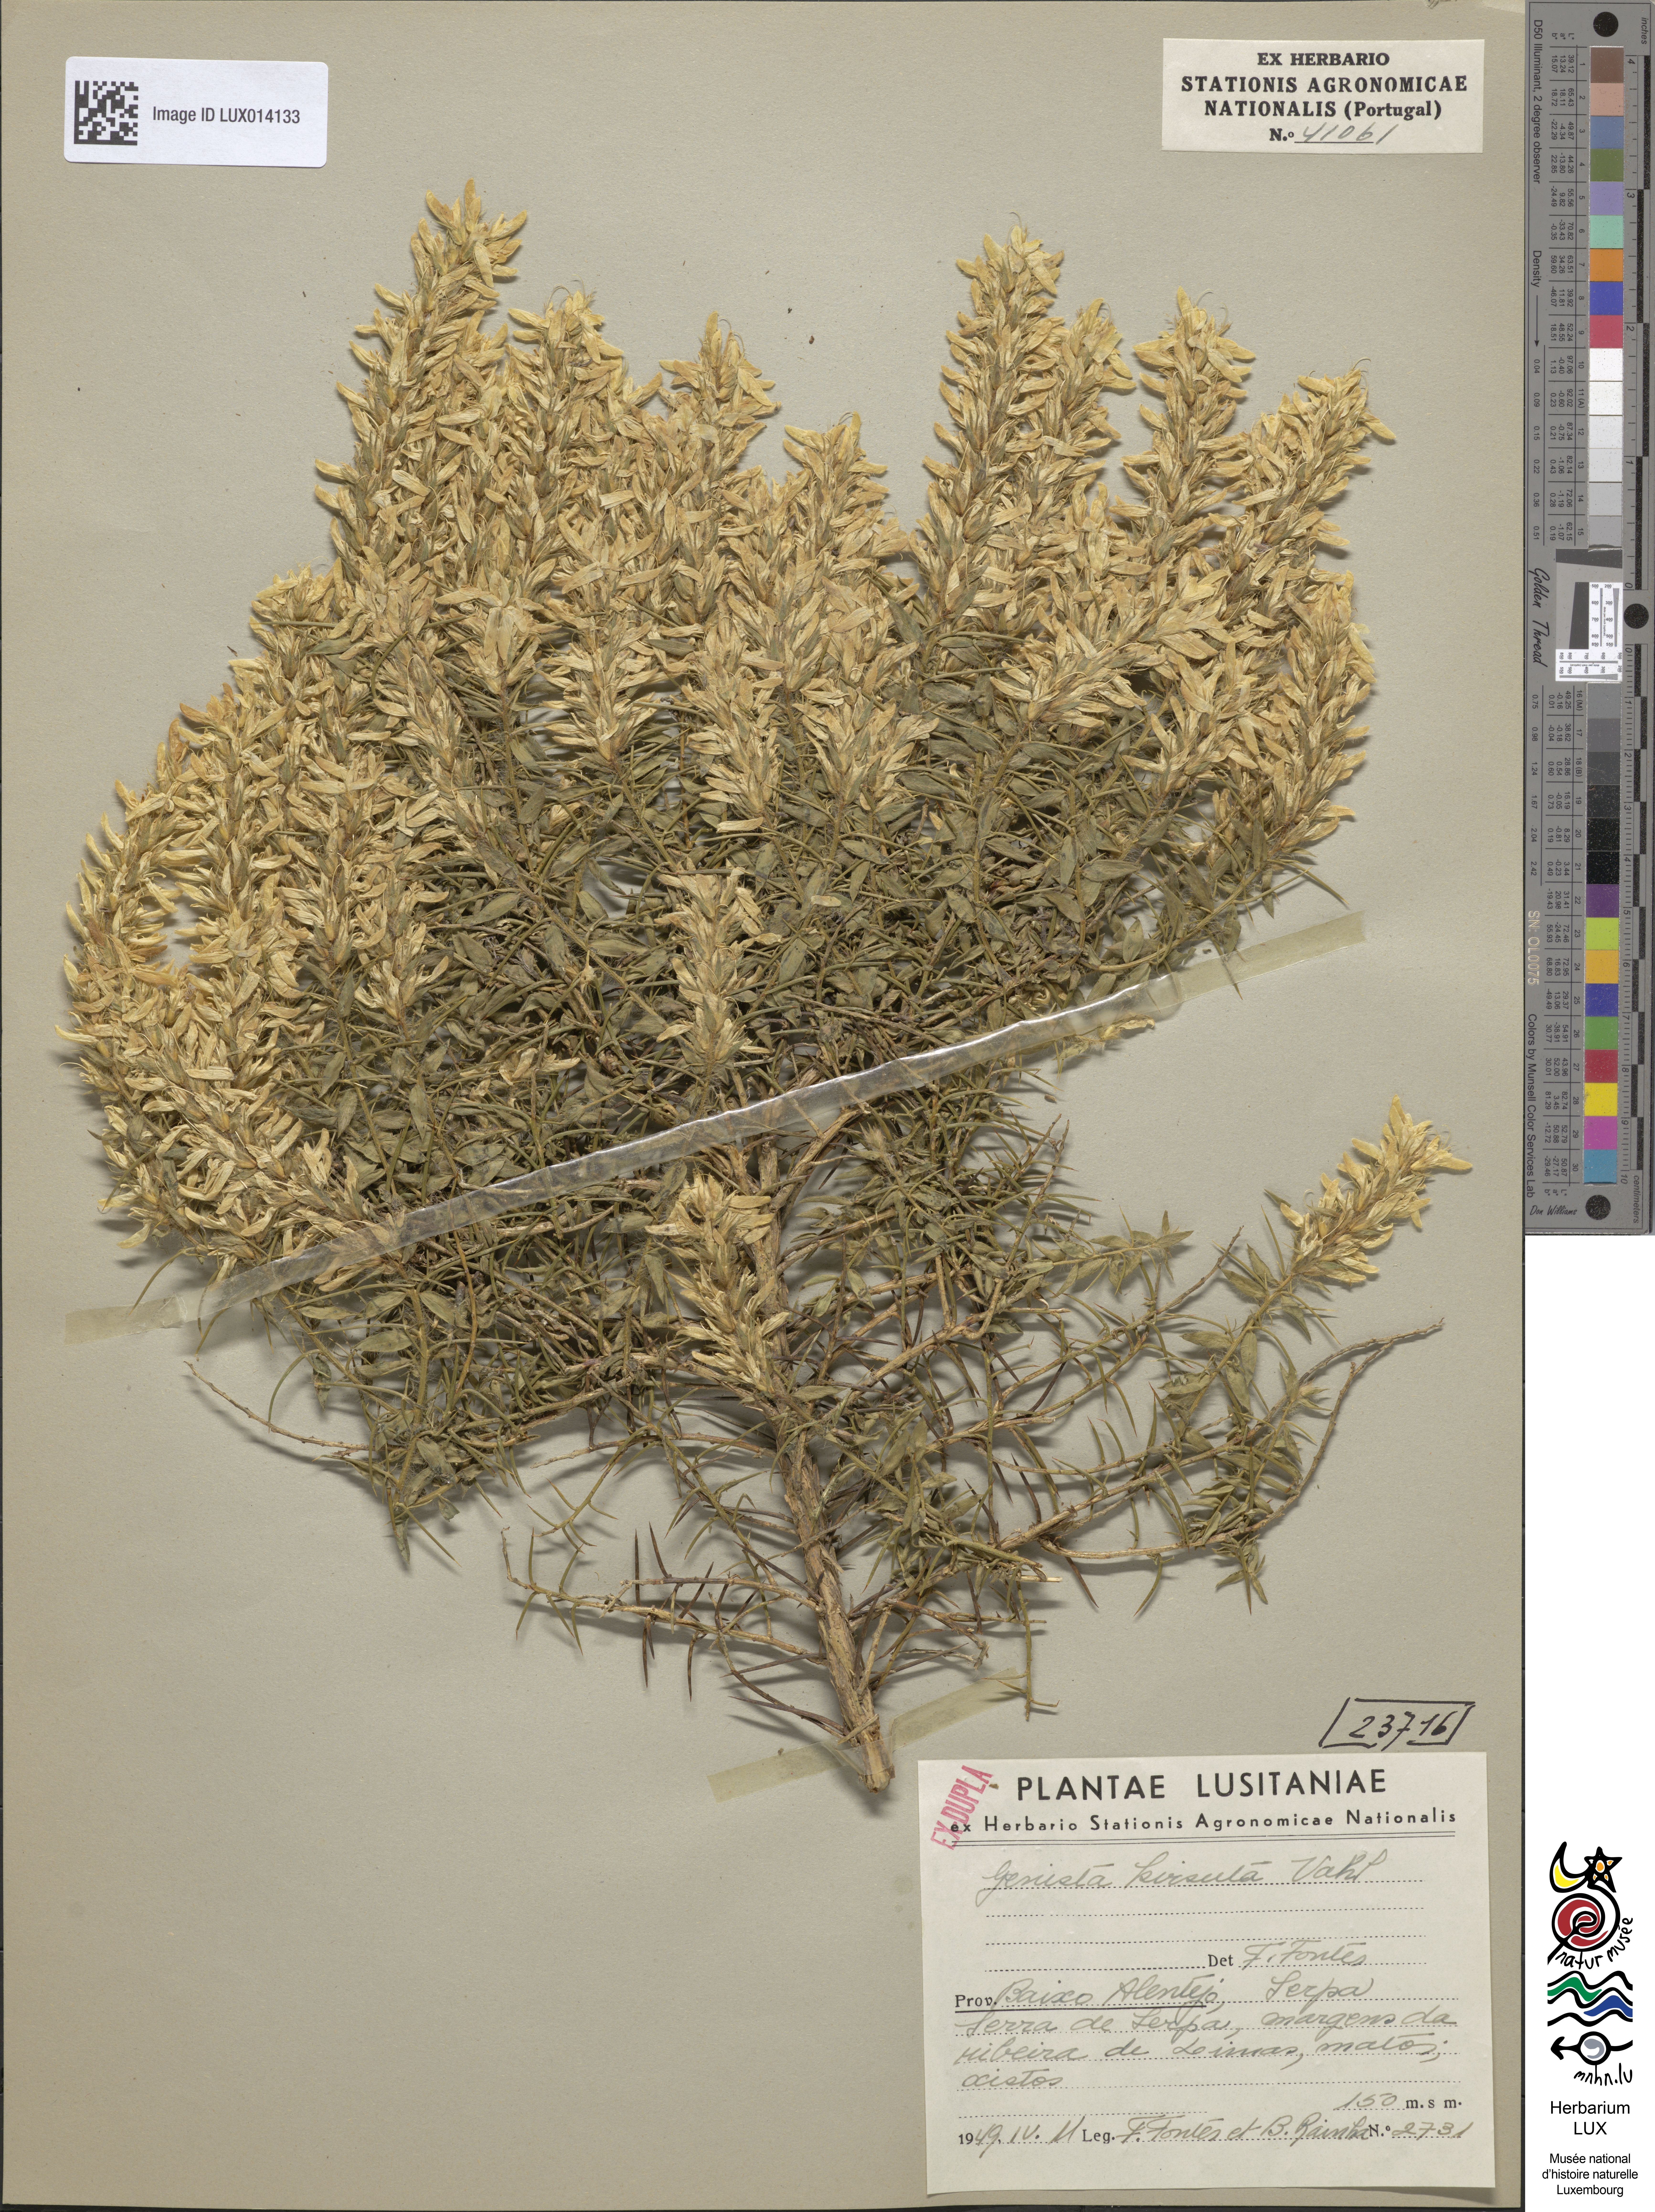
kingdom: Plantae
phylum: Tracheophyta
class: Magnoliopsida
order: Fabales
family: Fabaceae
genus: Genista
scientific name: Genista hirsuta
